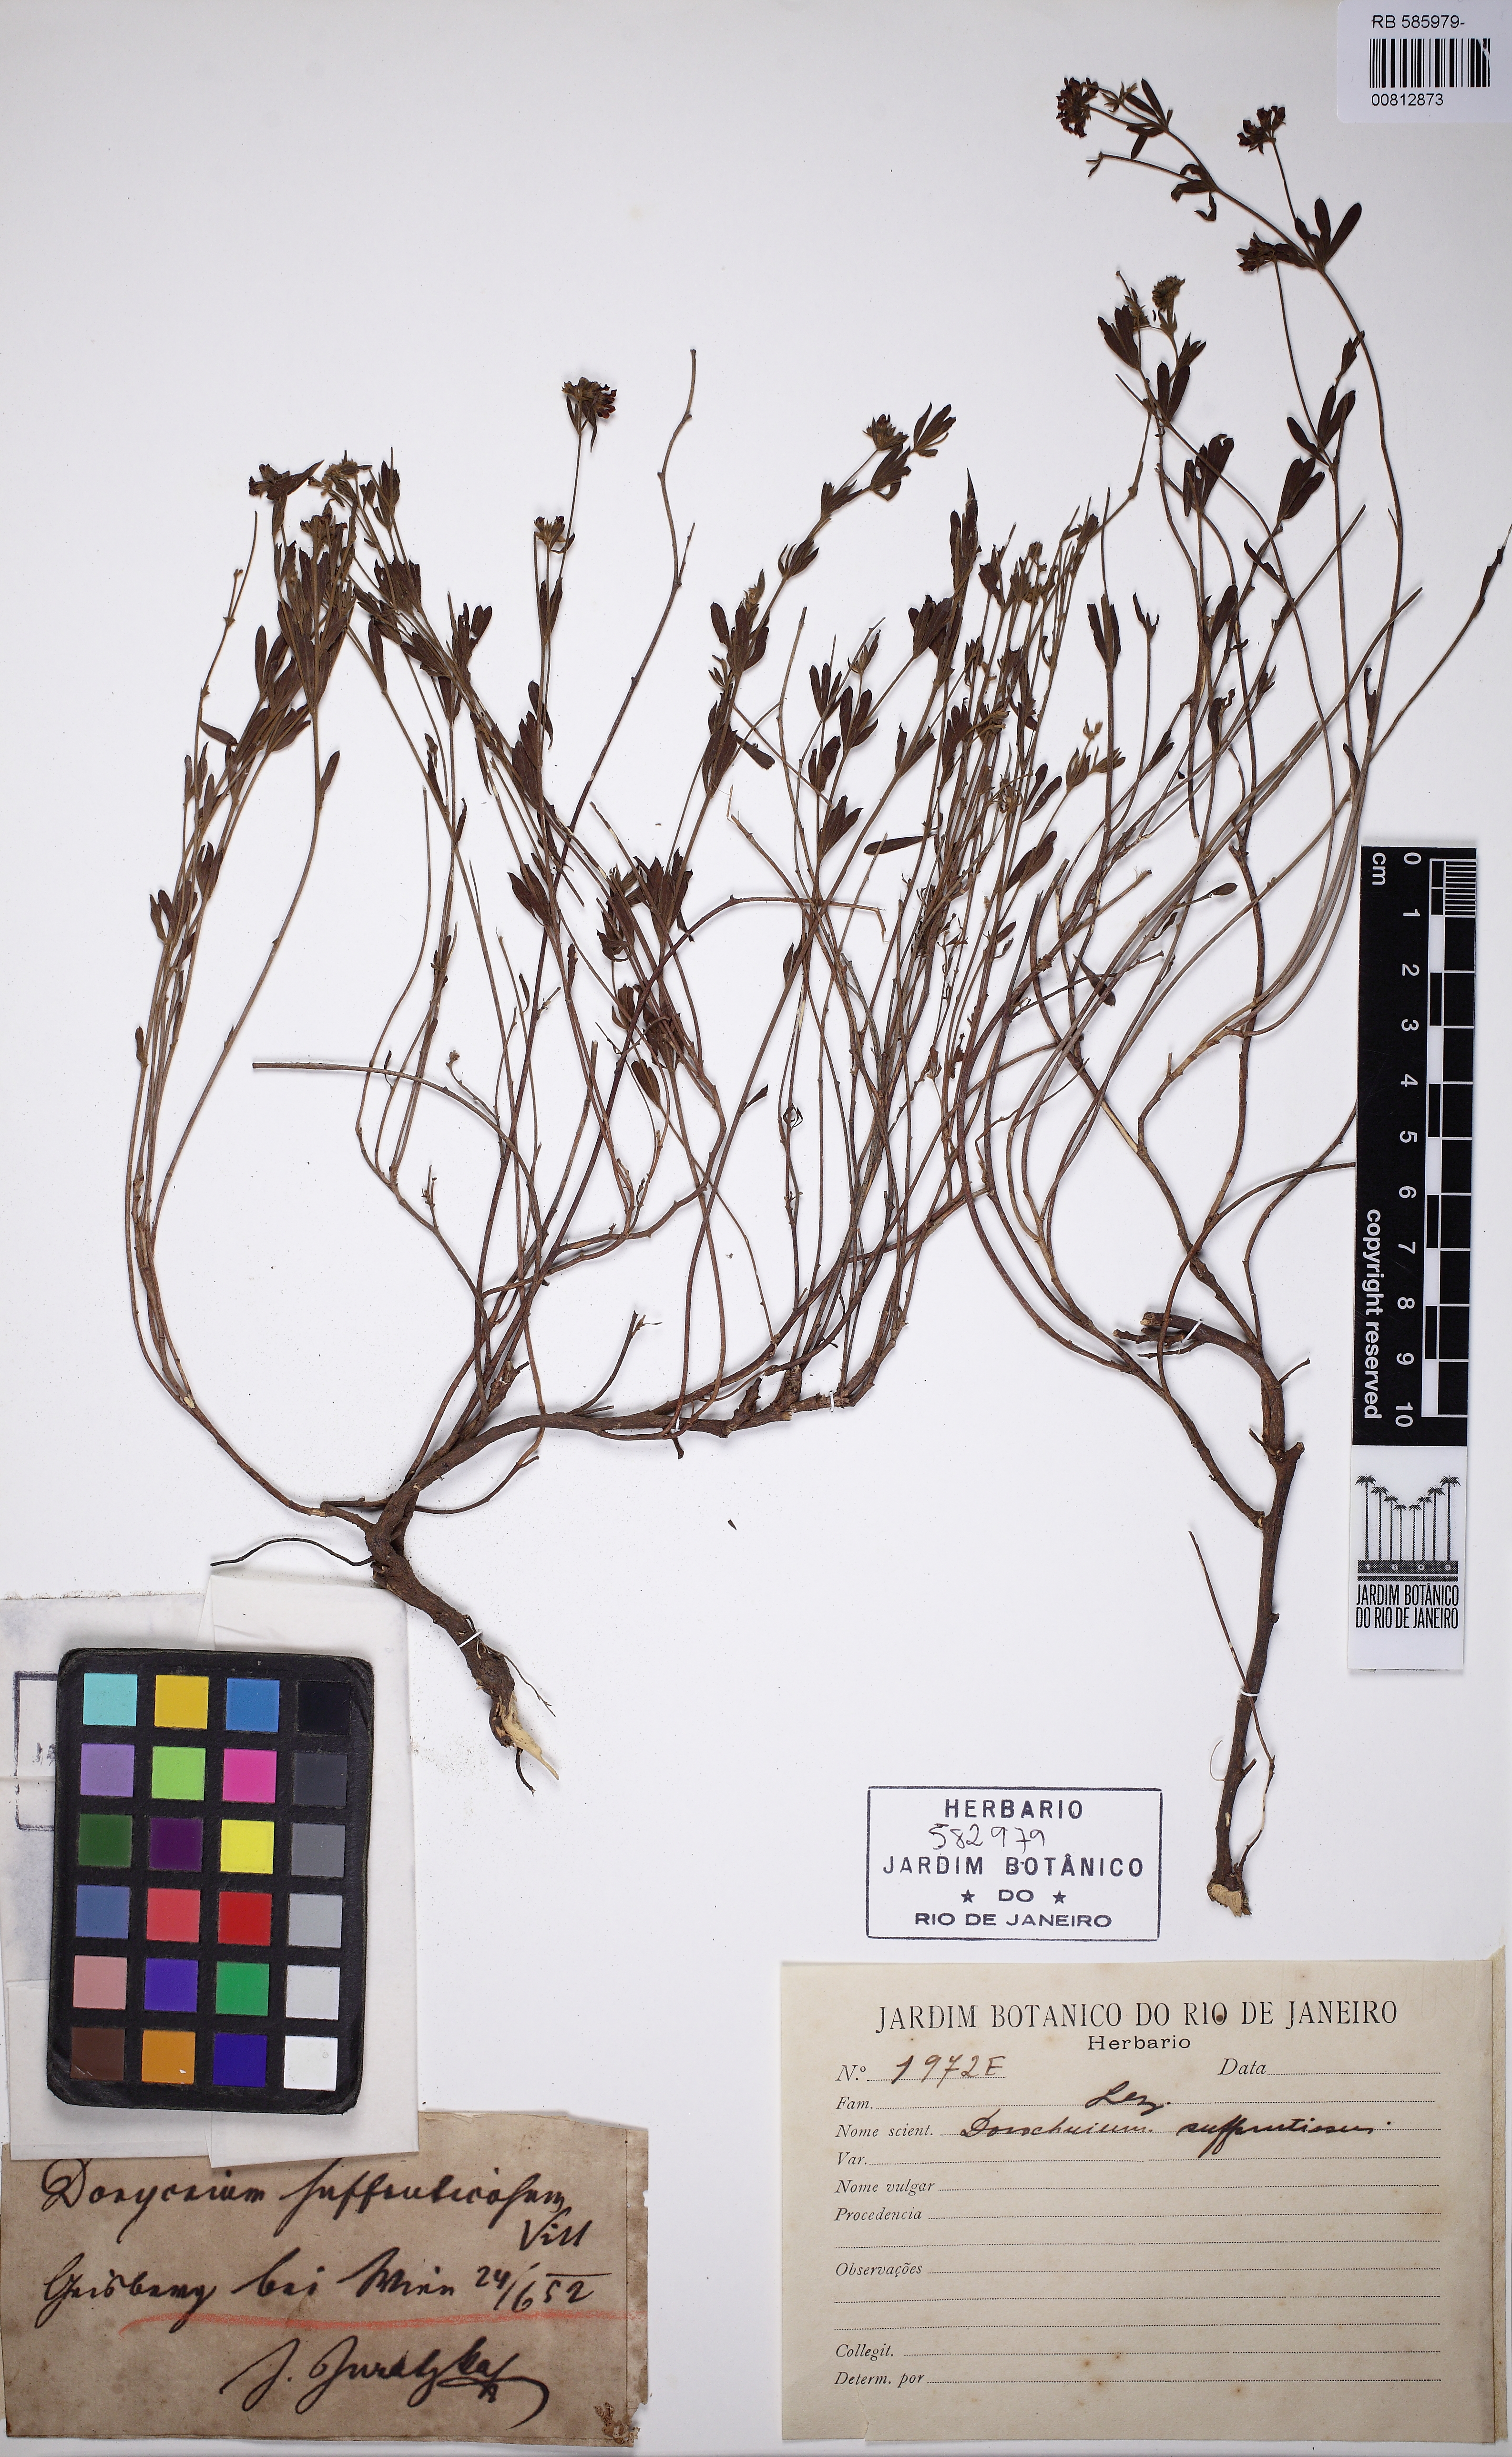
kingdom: Plantae
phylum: Tracheophyta
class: Magnoliopsida
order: Fabales
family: Fabaceae
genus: Lotus
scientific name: Lotus dorycnium
